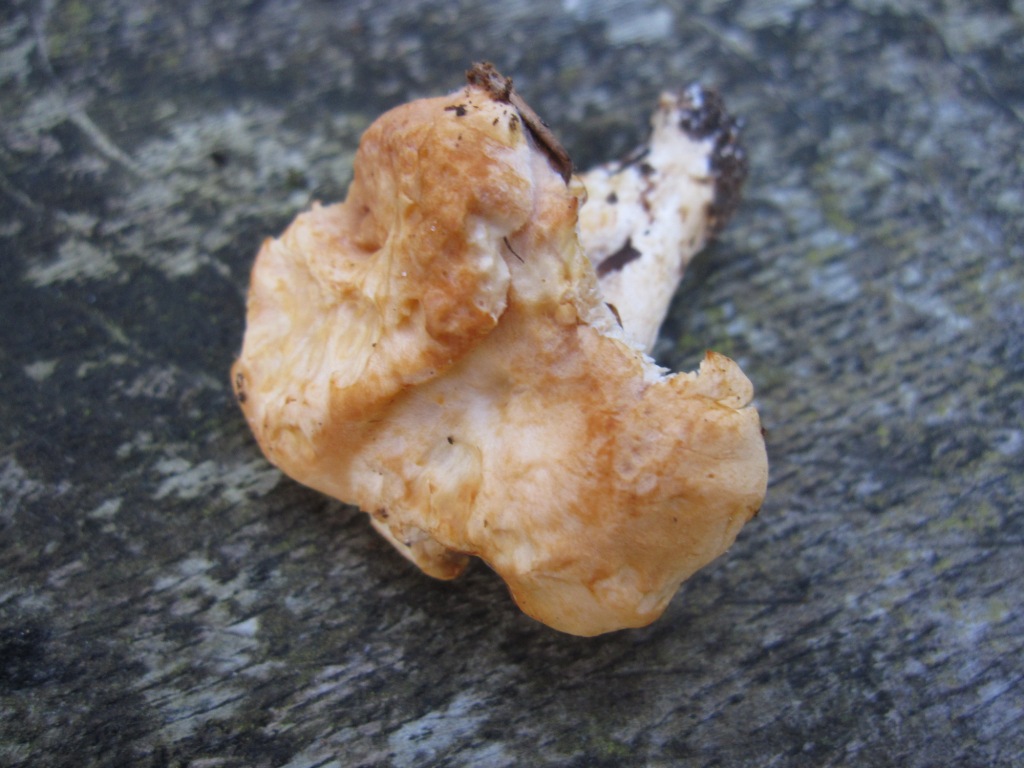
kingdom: Fungi
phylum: Basidiomycota
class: Agaricomycetes
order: Cantharellales
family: Hydnaceae
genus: Hydnum
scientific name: Hydnum rufescens
